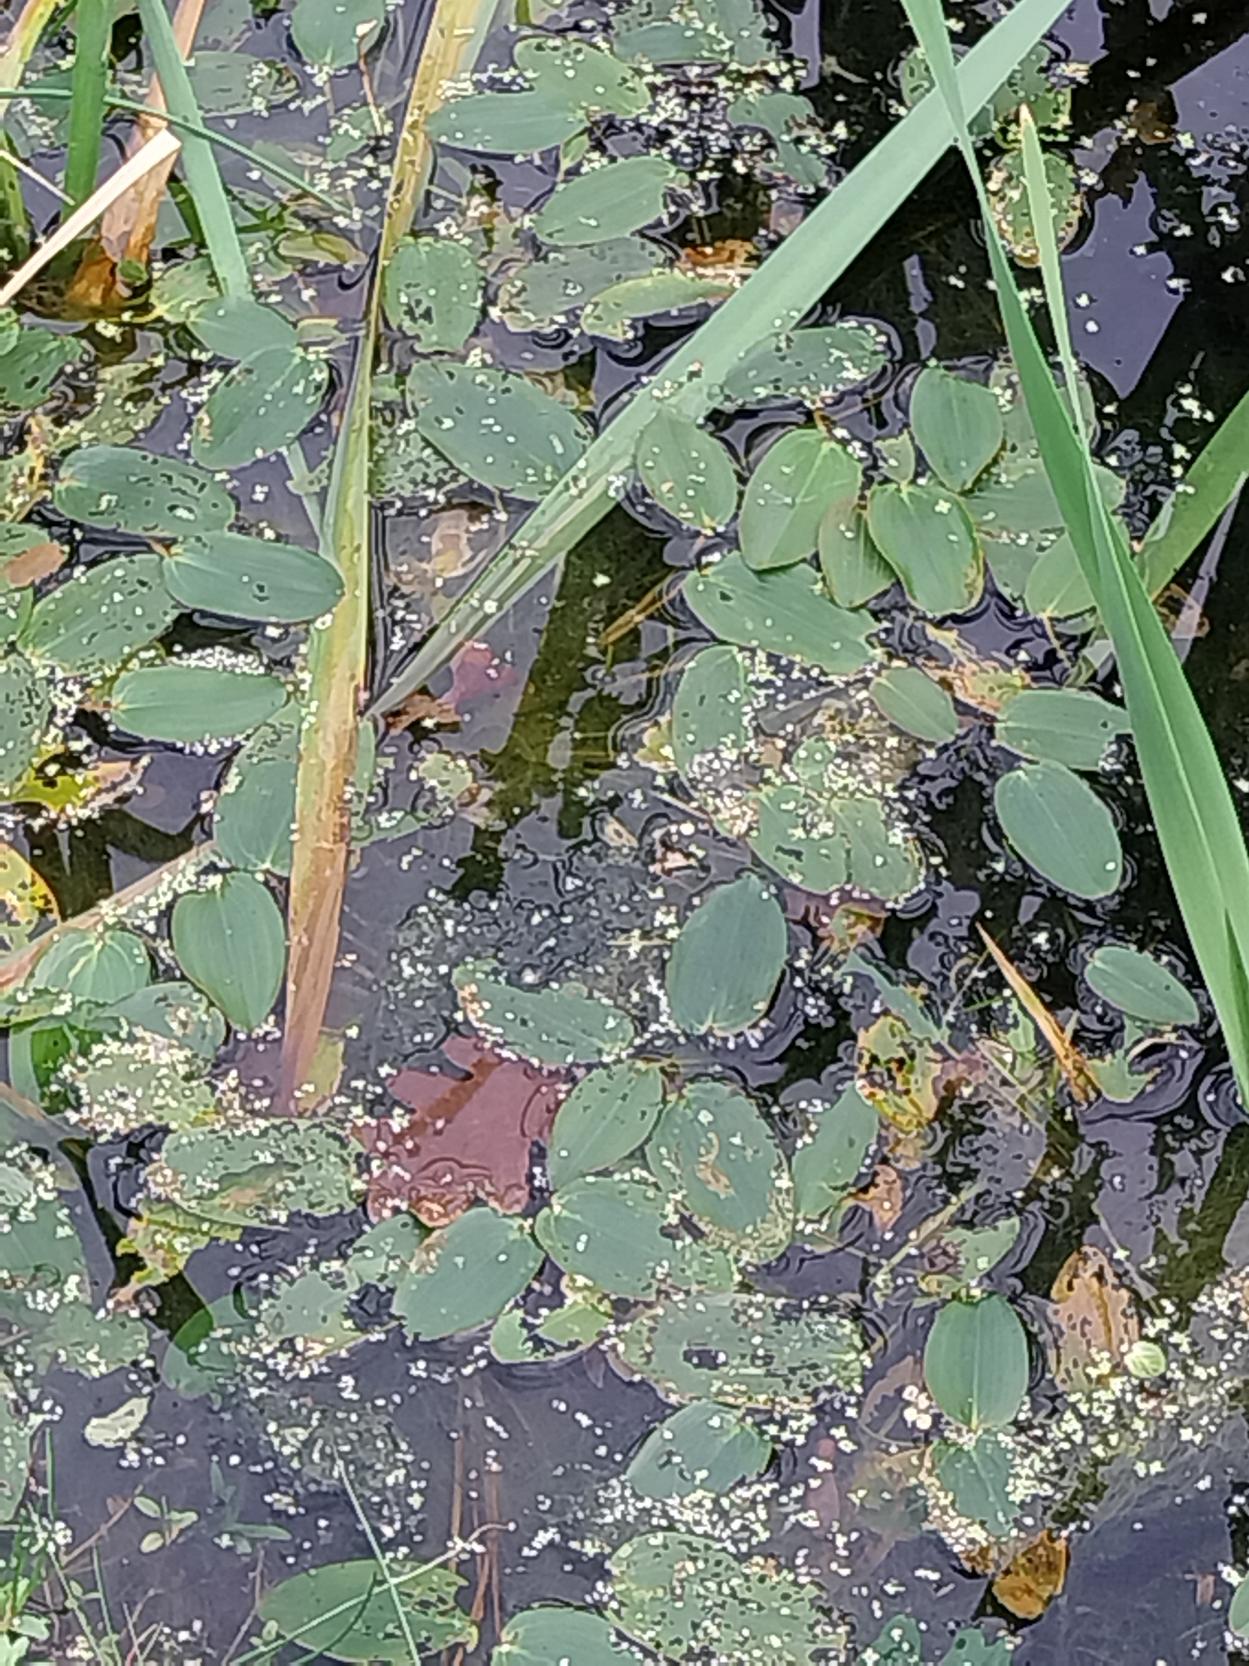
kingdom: Plantae
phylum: Tracheophyta
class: Liliopsida
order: Alismatales
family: Potamogetonaceae
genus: Potamogeton
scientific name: Potamogeton natans
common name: Svømmende vandaks
